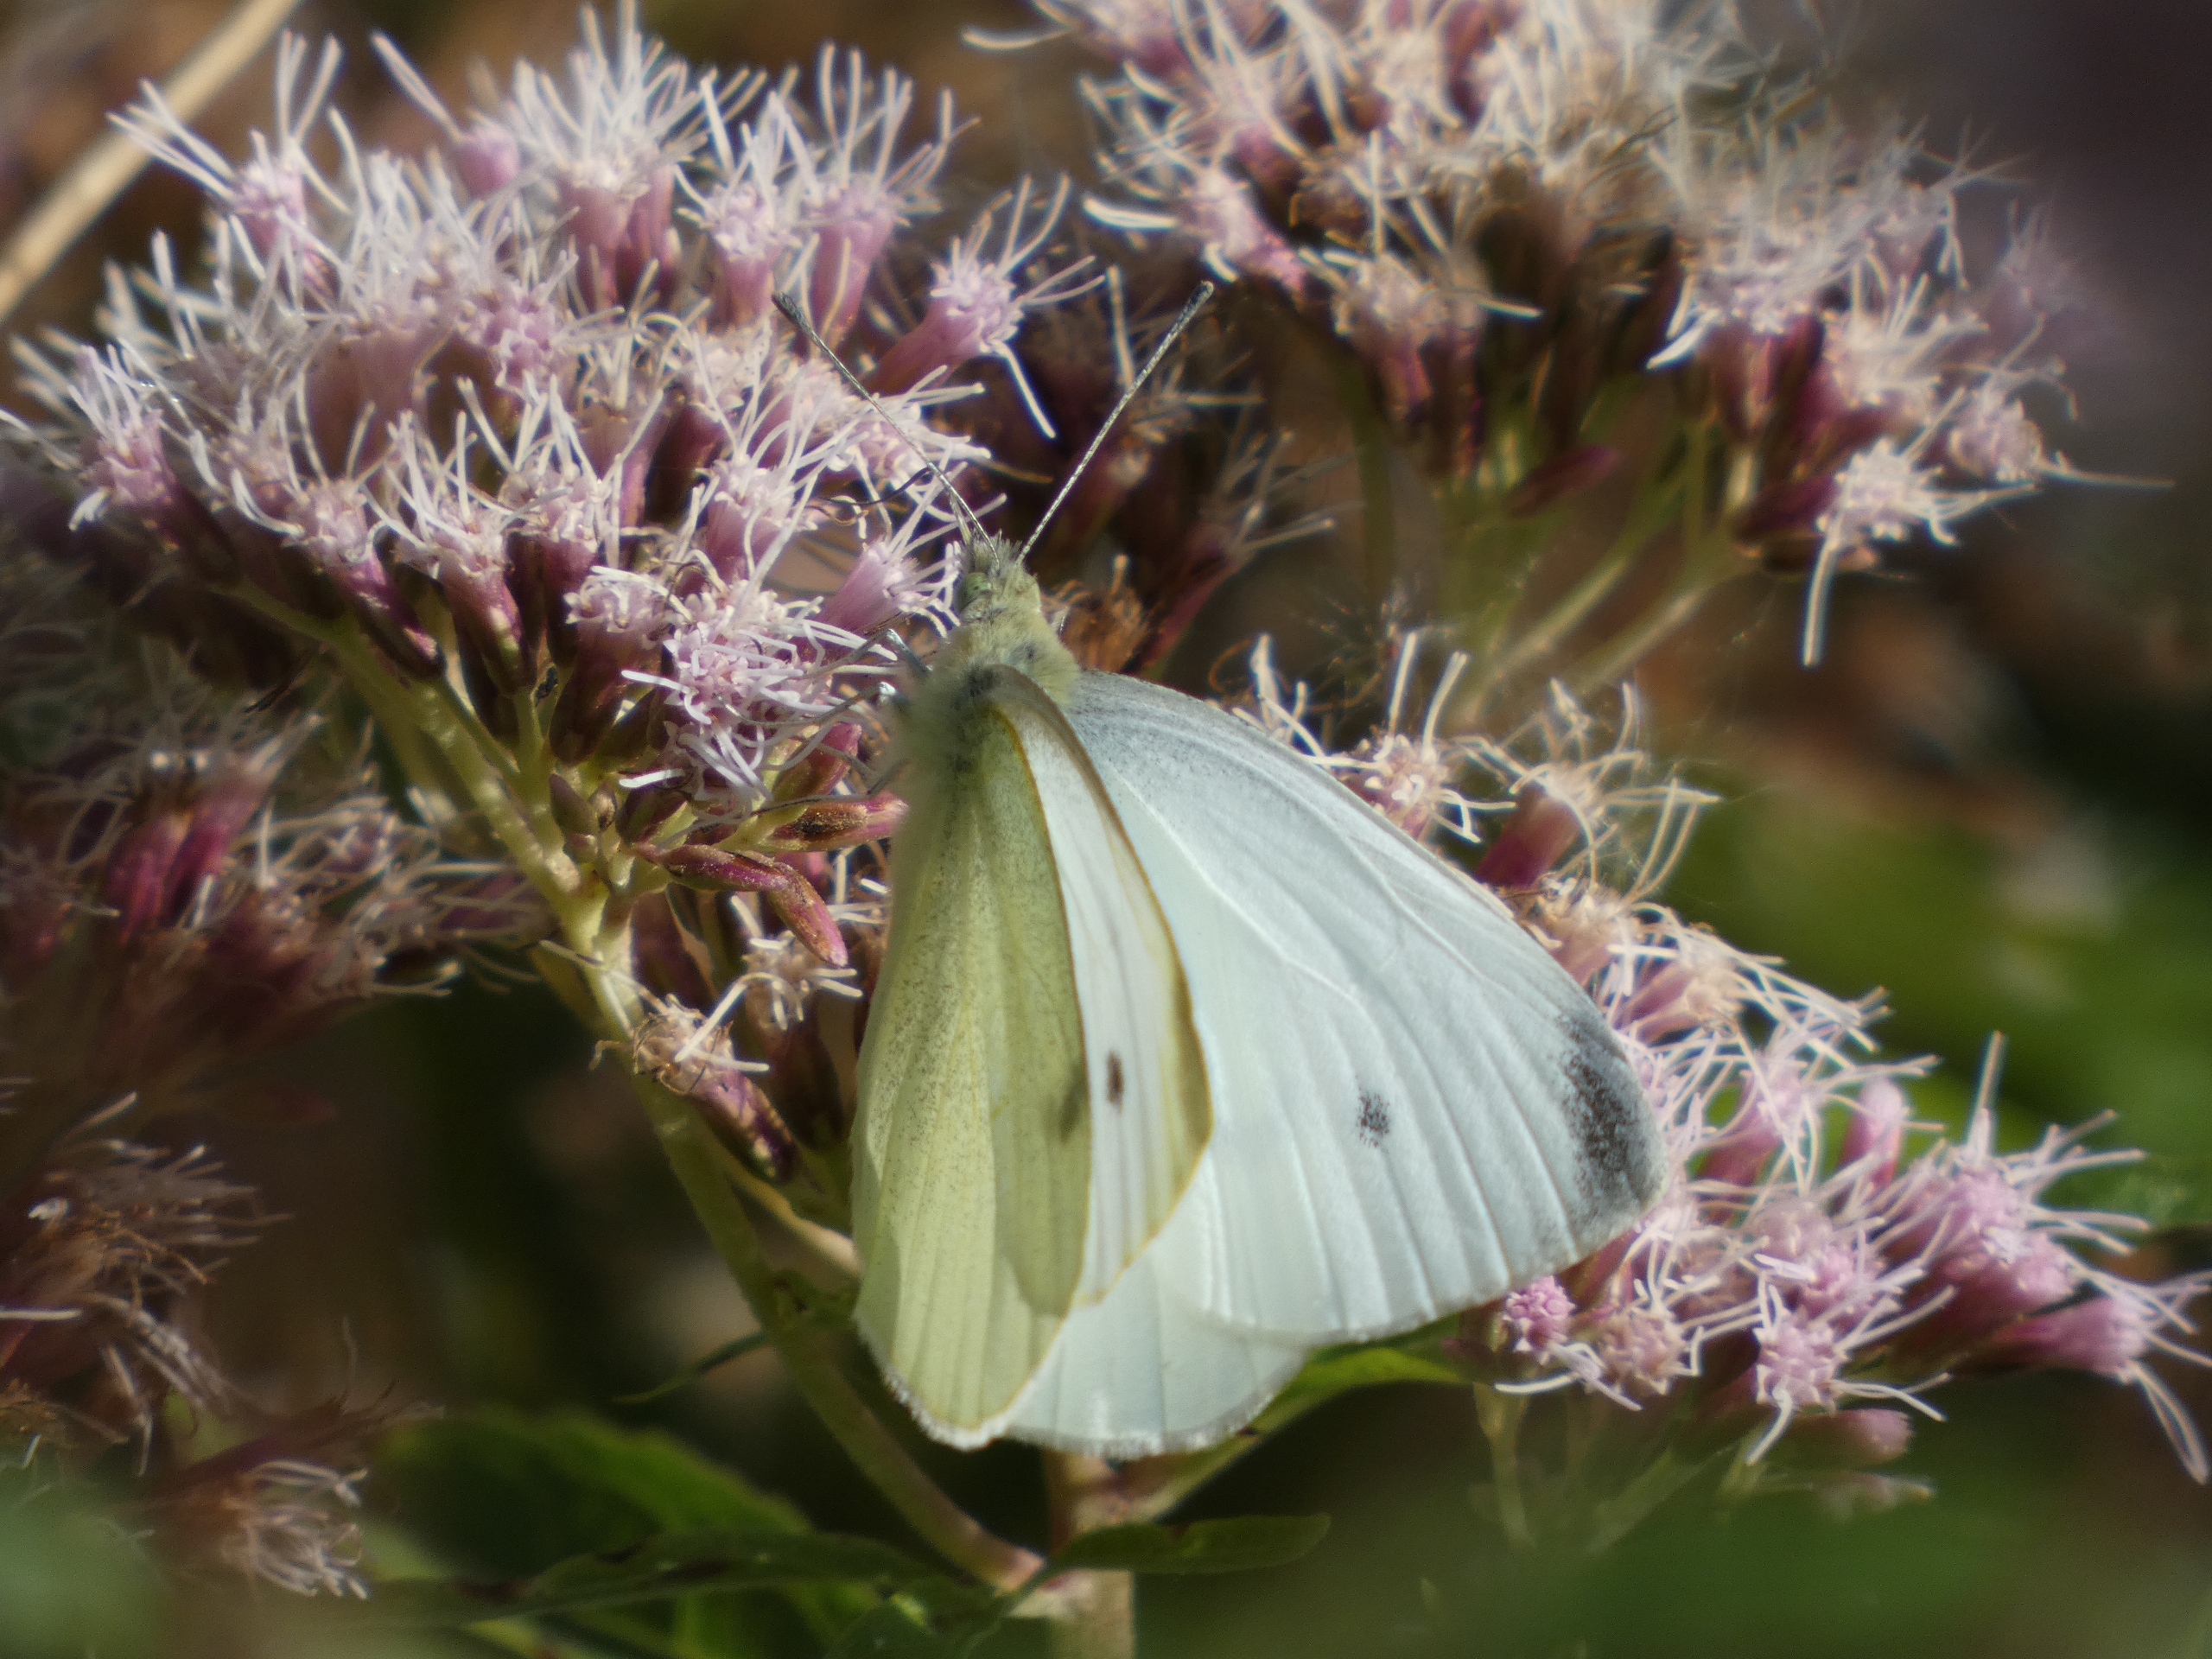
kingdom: Animalia
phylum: Arthropoda
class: Insecta
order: Lepidoptera
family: Pieridae
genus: Pieris
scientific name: Pieris rapae
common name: Lille kålsommerfugl
